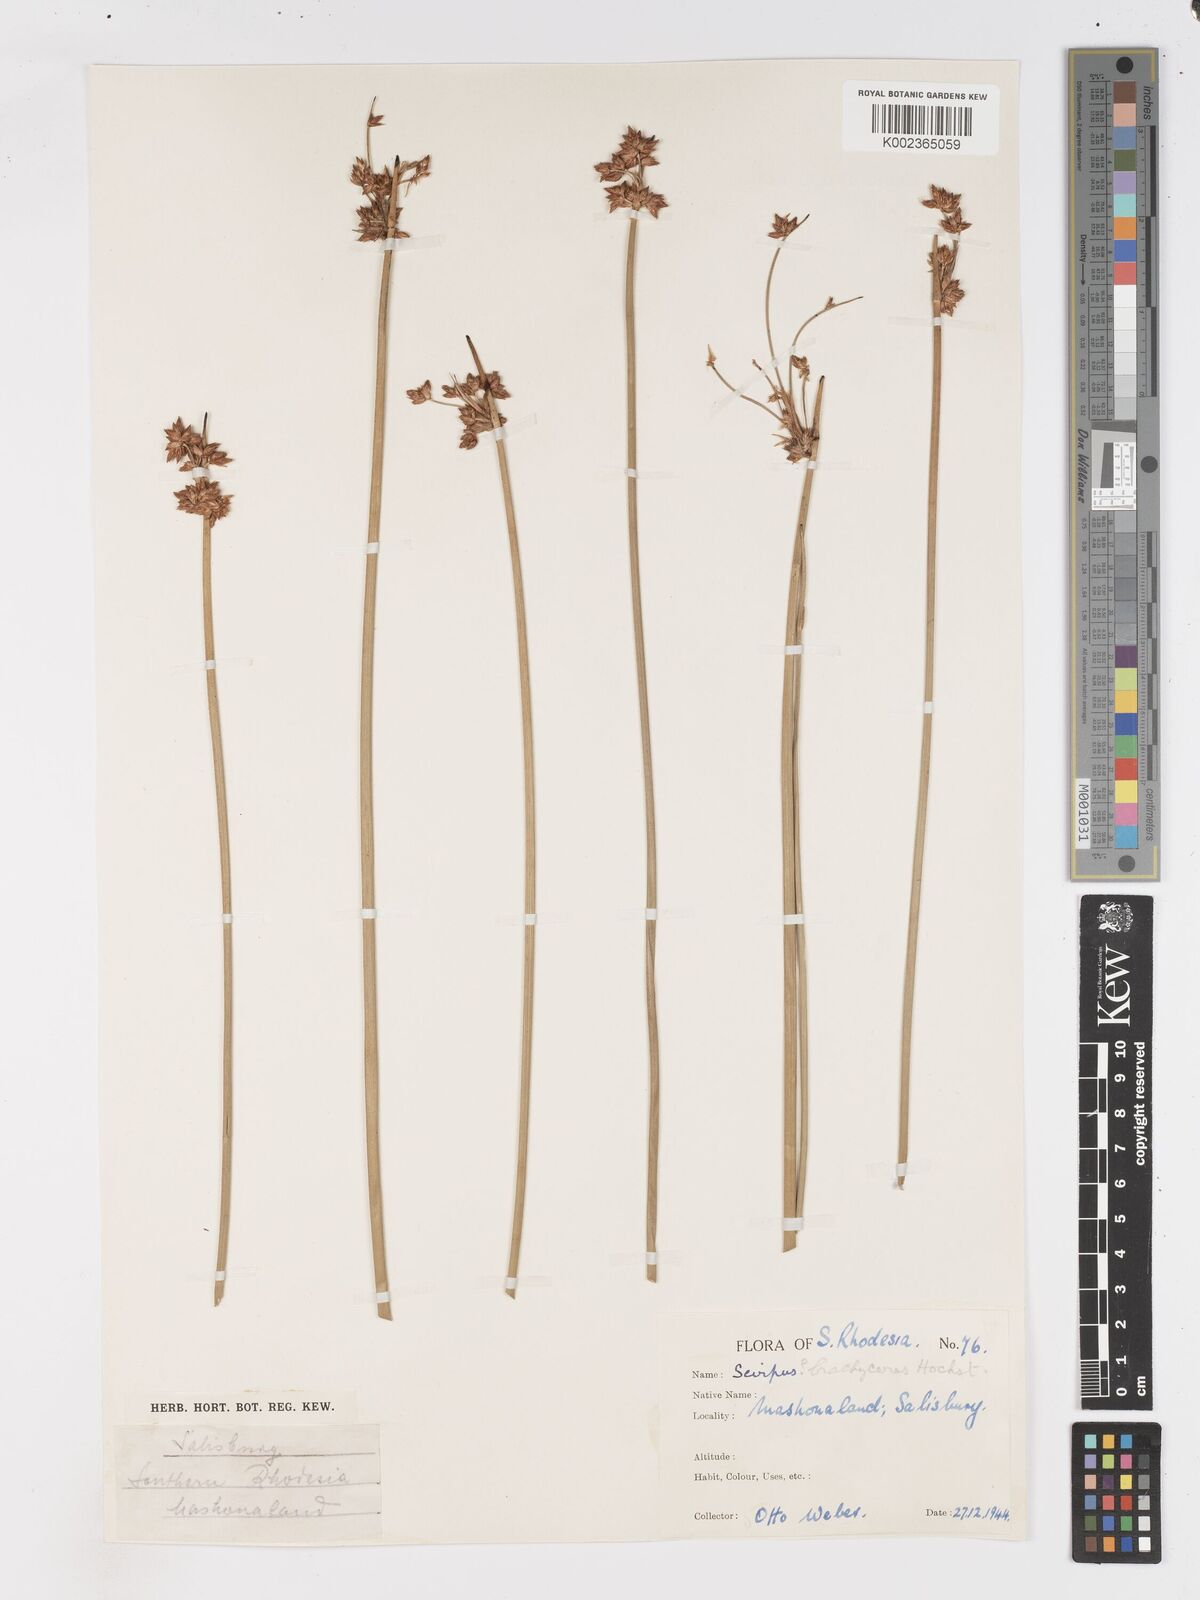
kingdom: Plantae
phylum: Tracheophyta
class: Liliopsida
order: Poales
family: Cyperaceae
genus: Schoenoplectiella
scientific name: Schoenoplectiella corymbosa
